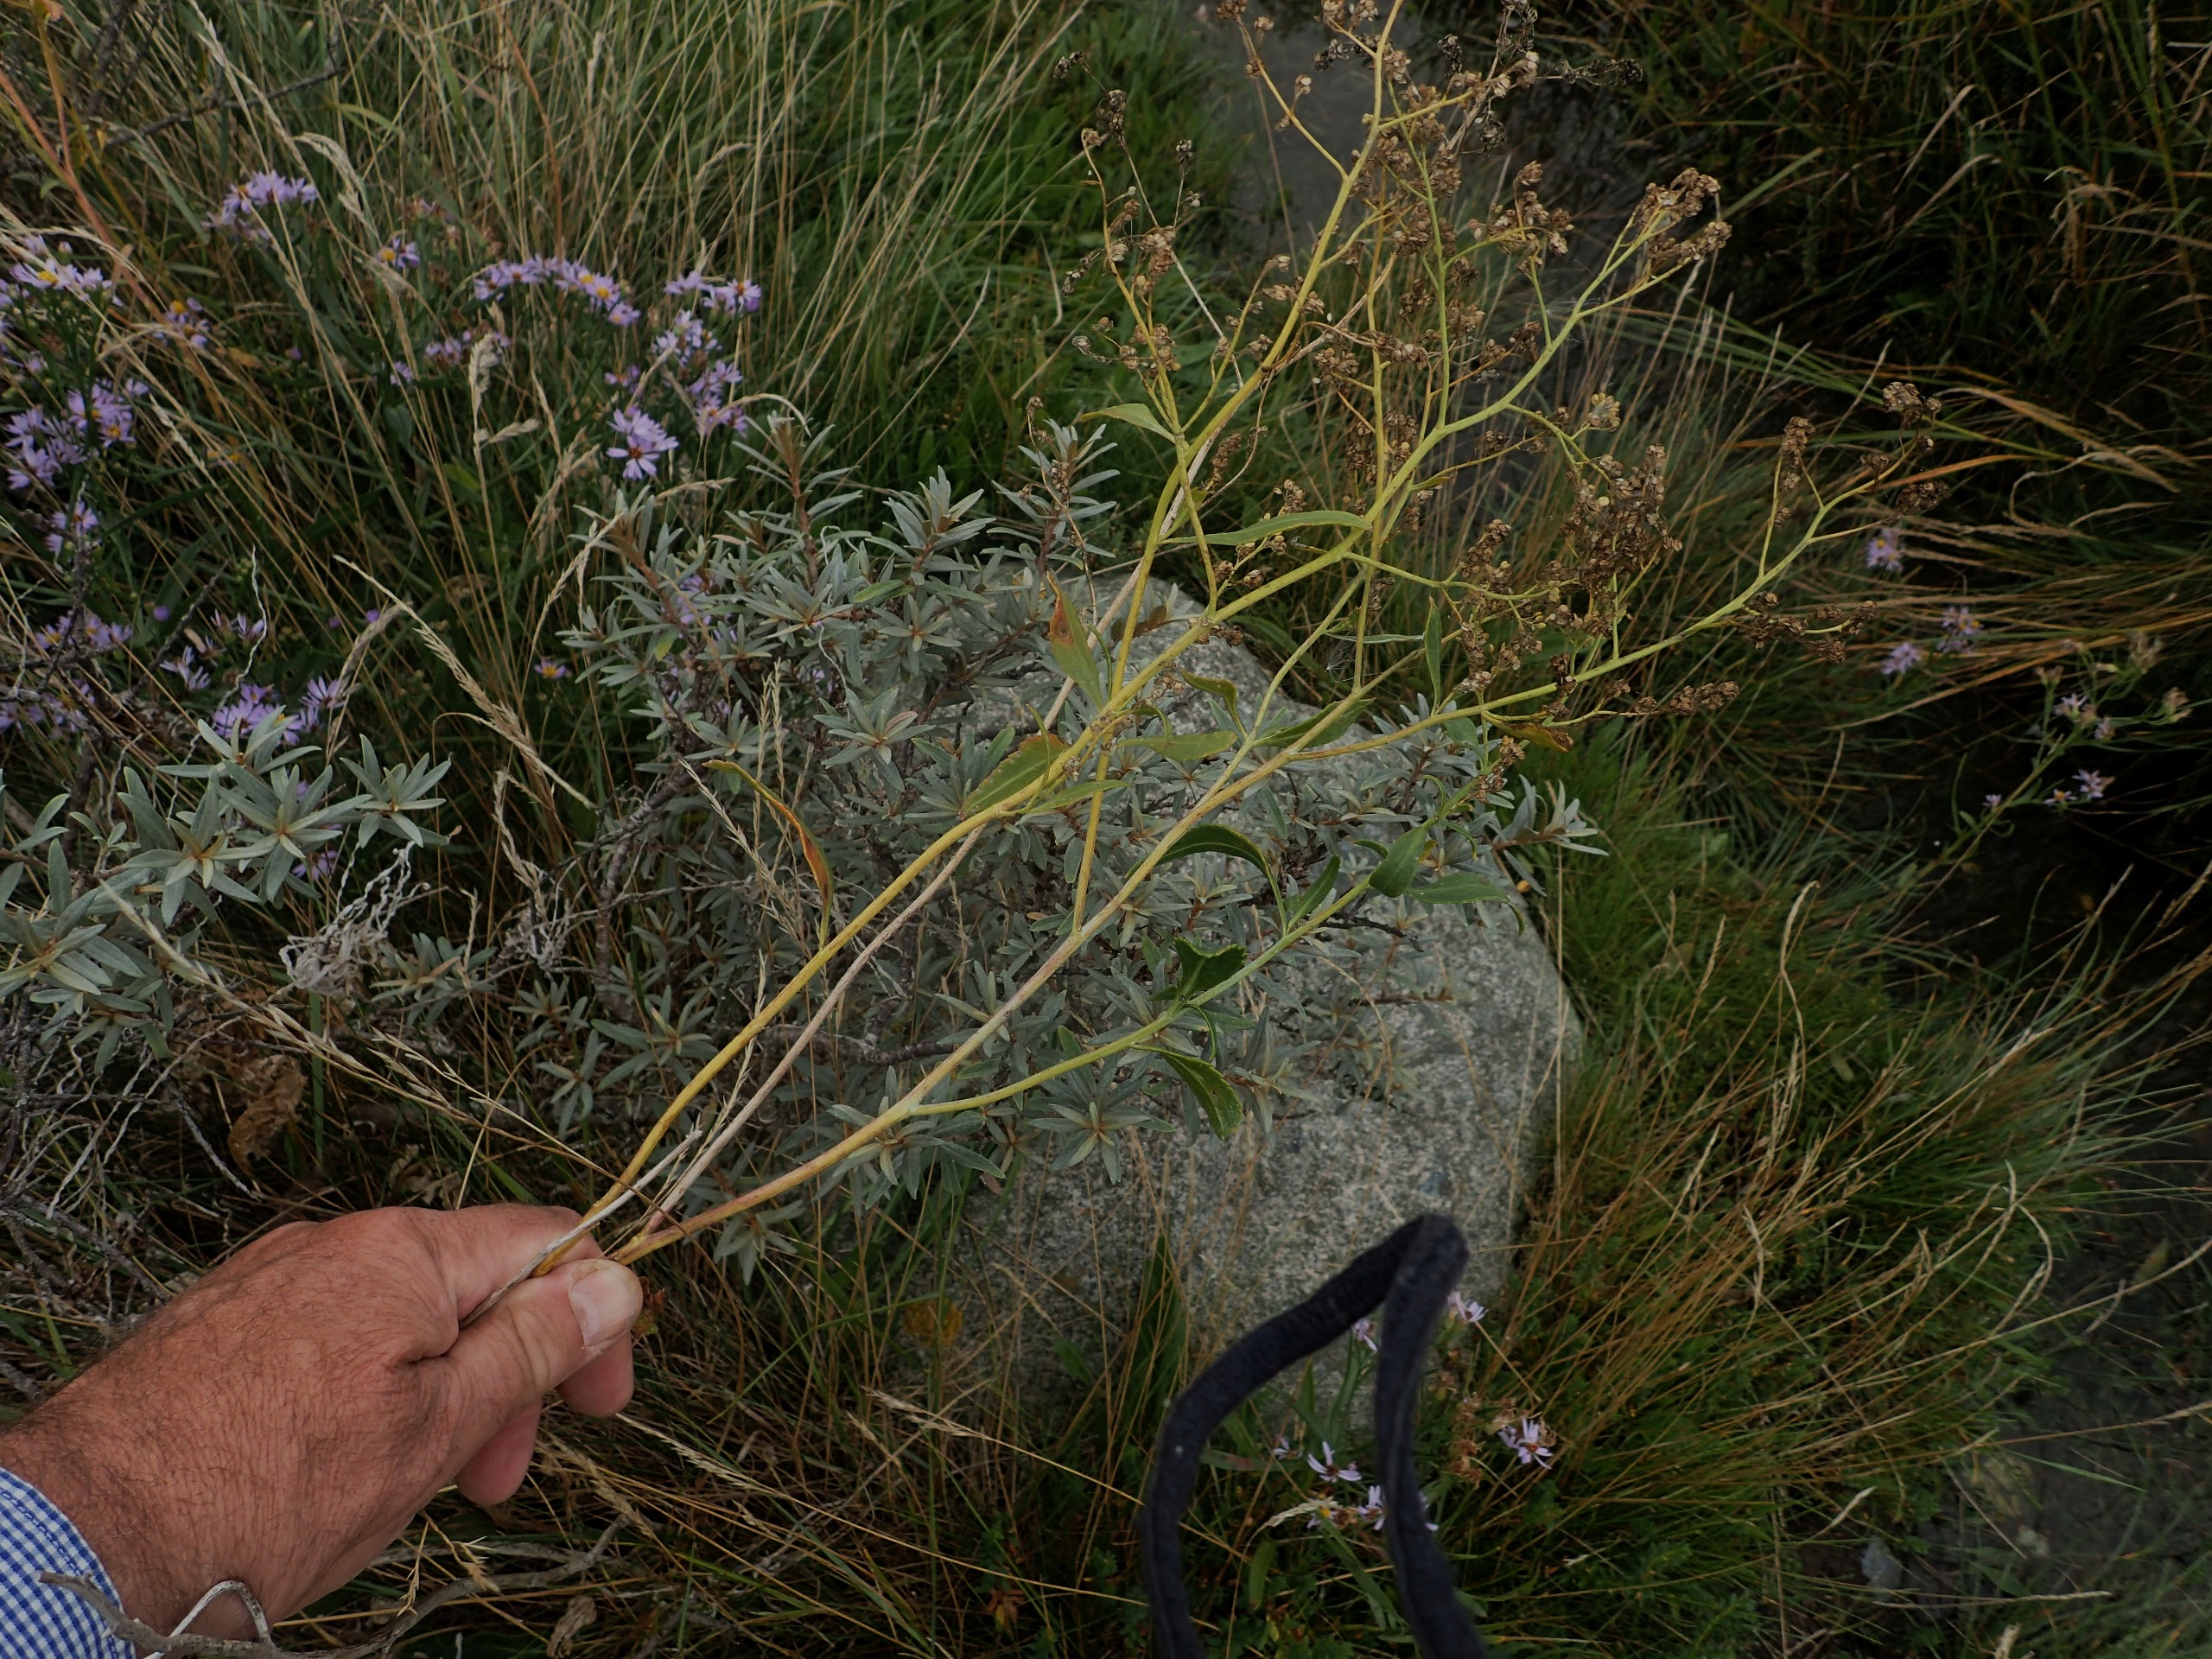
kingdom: Plantae
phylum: Tracheophyta
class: Magnoliopsida
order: Brassicales
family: Brassicaceae
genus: Lepidium
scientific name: Lepidium latifolium
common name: Strand-karse
